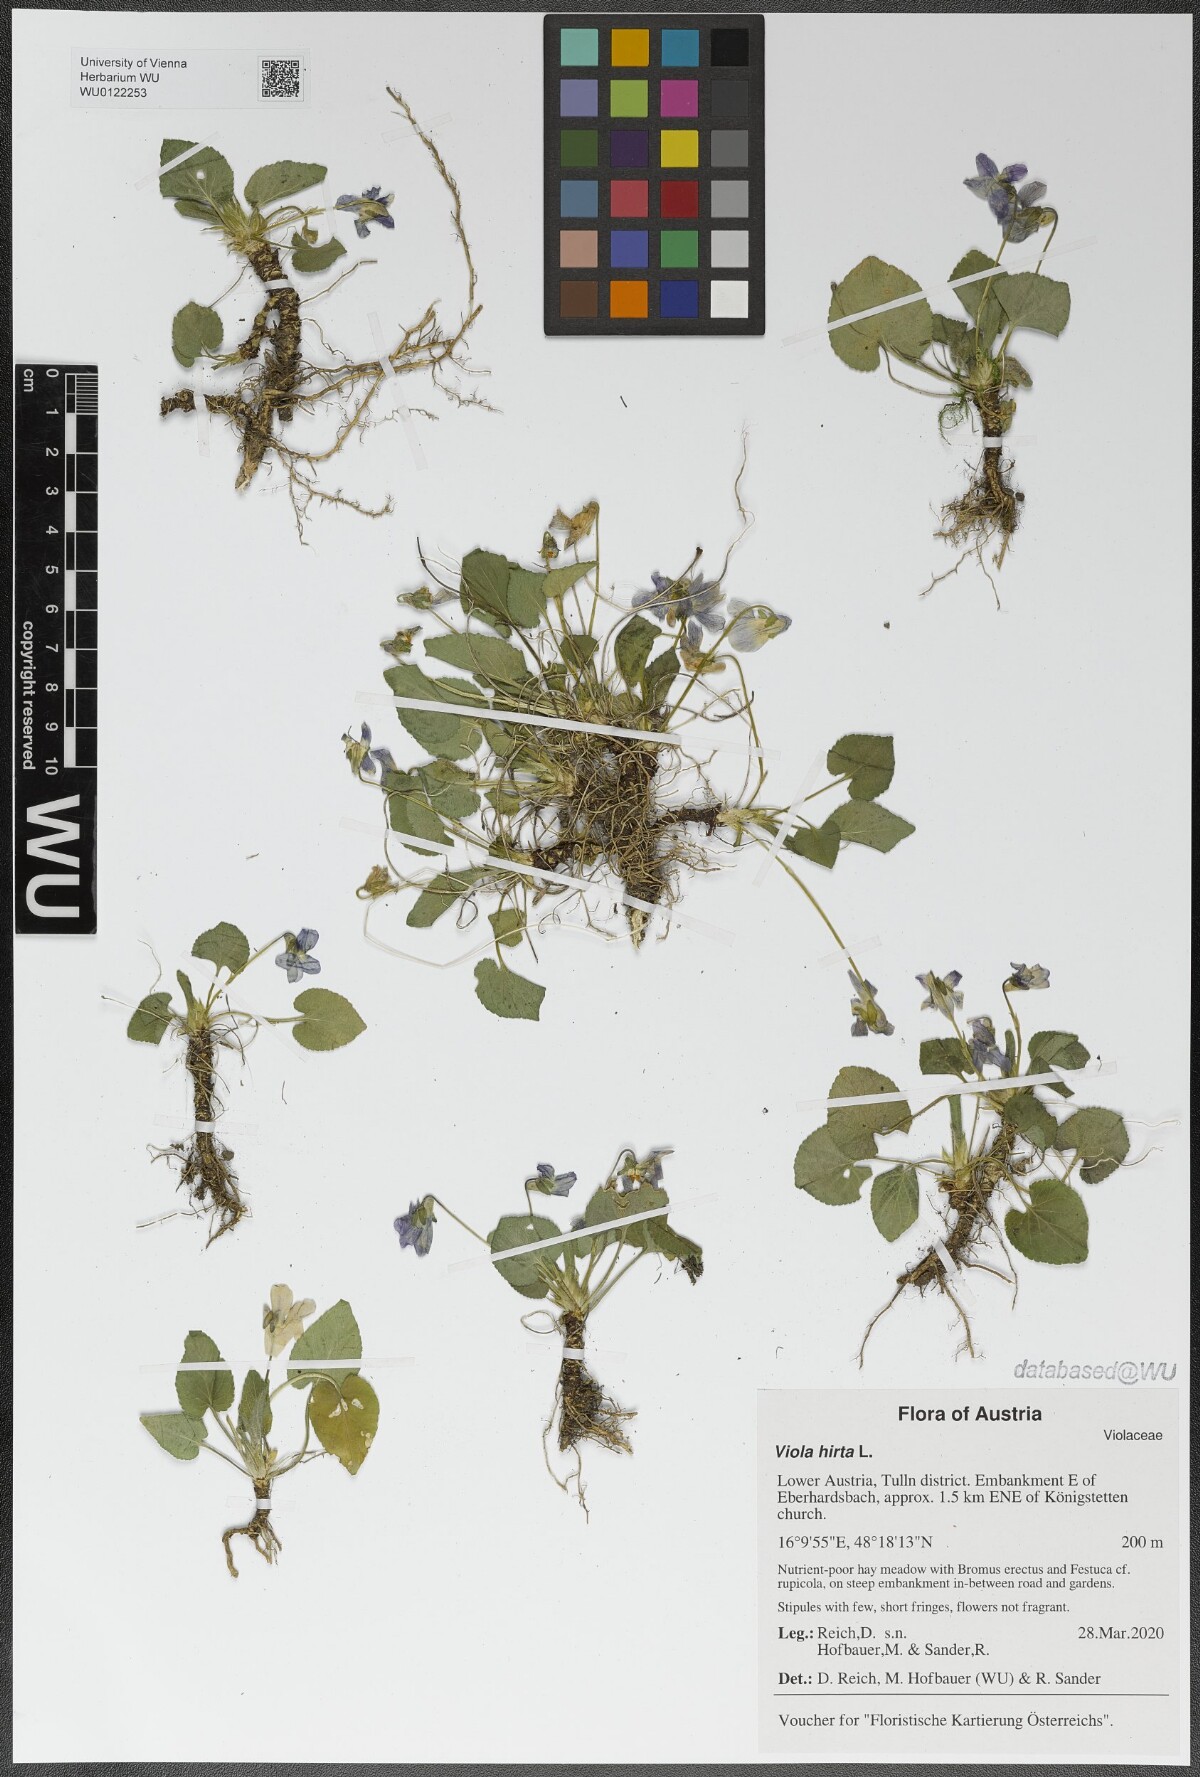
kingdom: Plantae
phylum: Tracheophyta
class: Magnoliopsida
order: Malpighiales
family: Violaceae
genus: Viola
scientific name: Viola hirta
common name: Hairy violet
